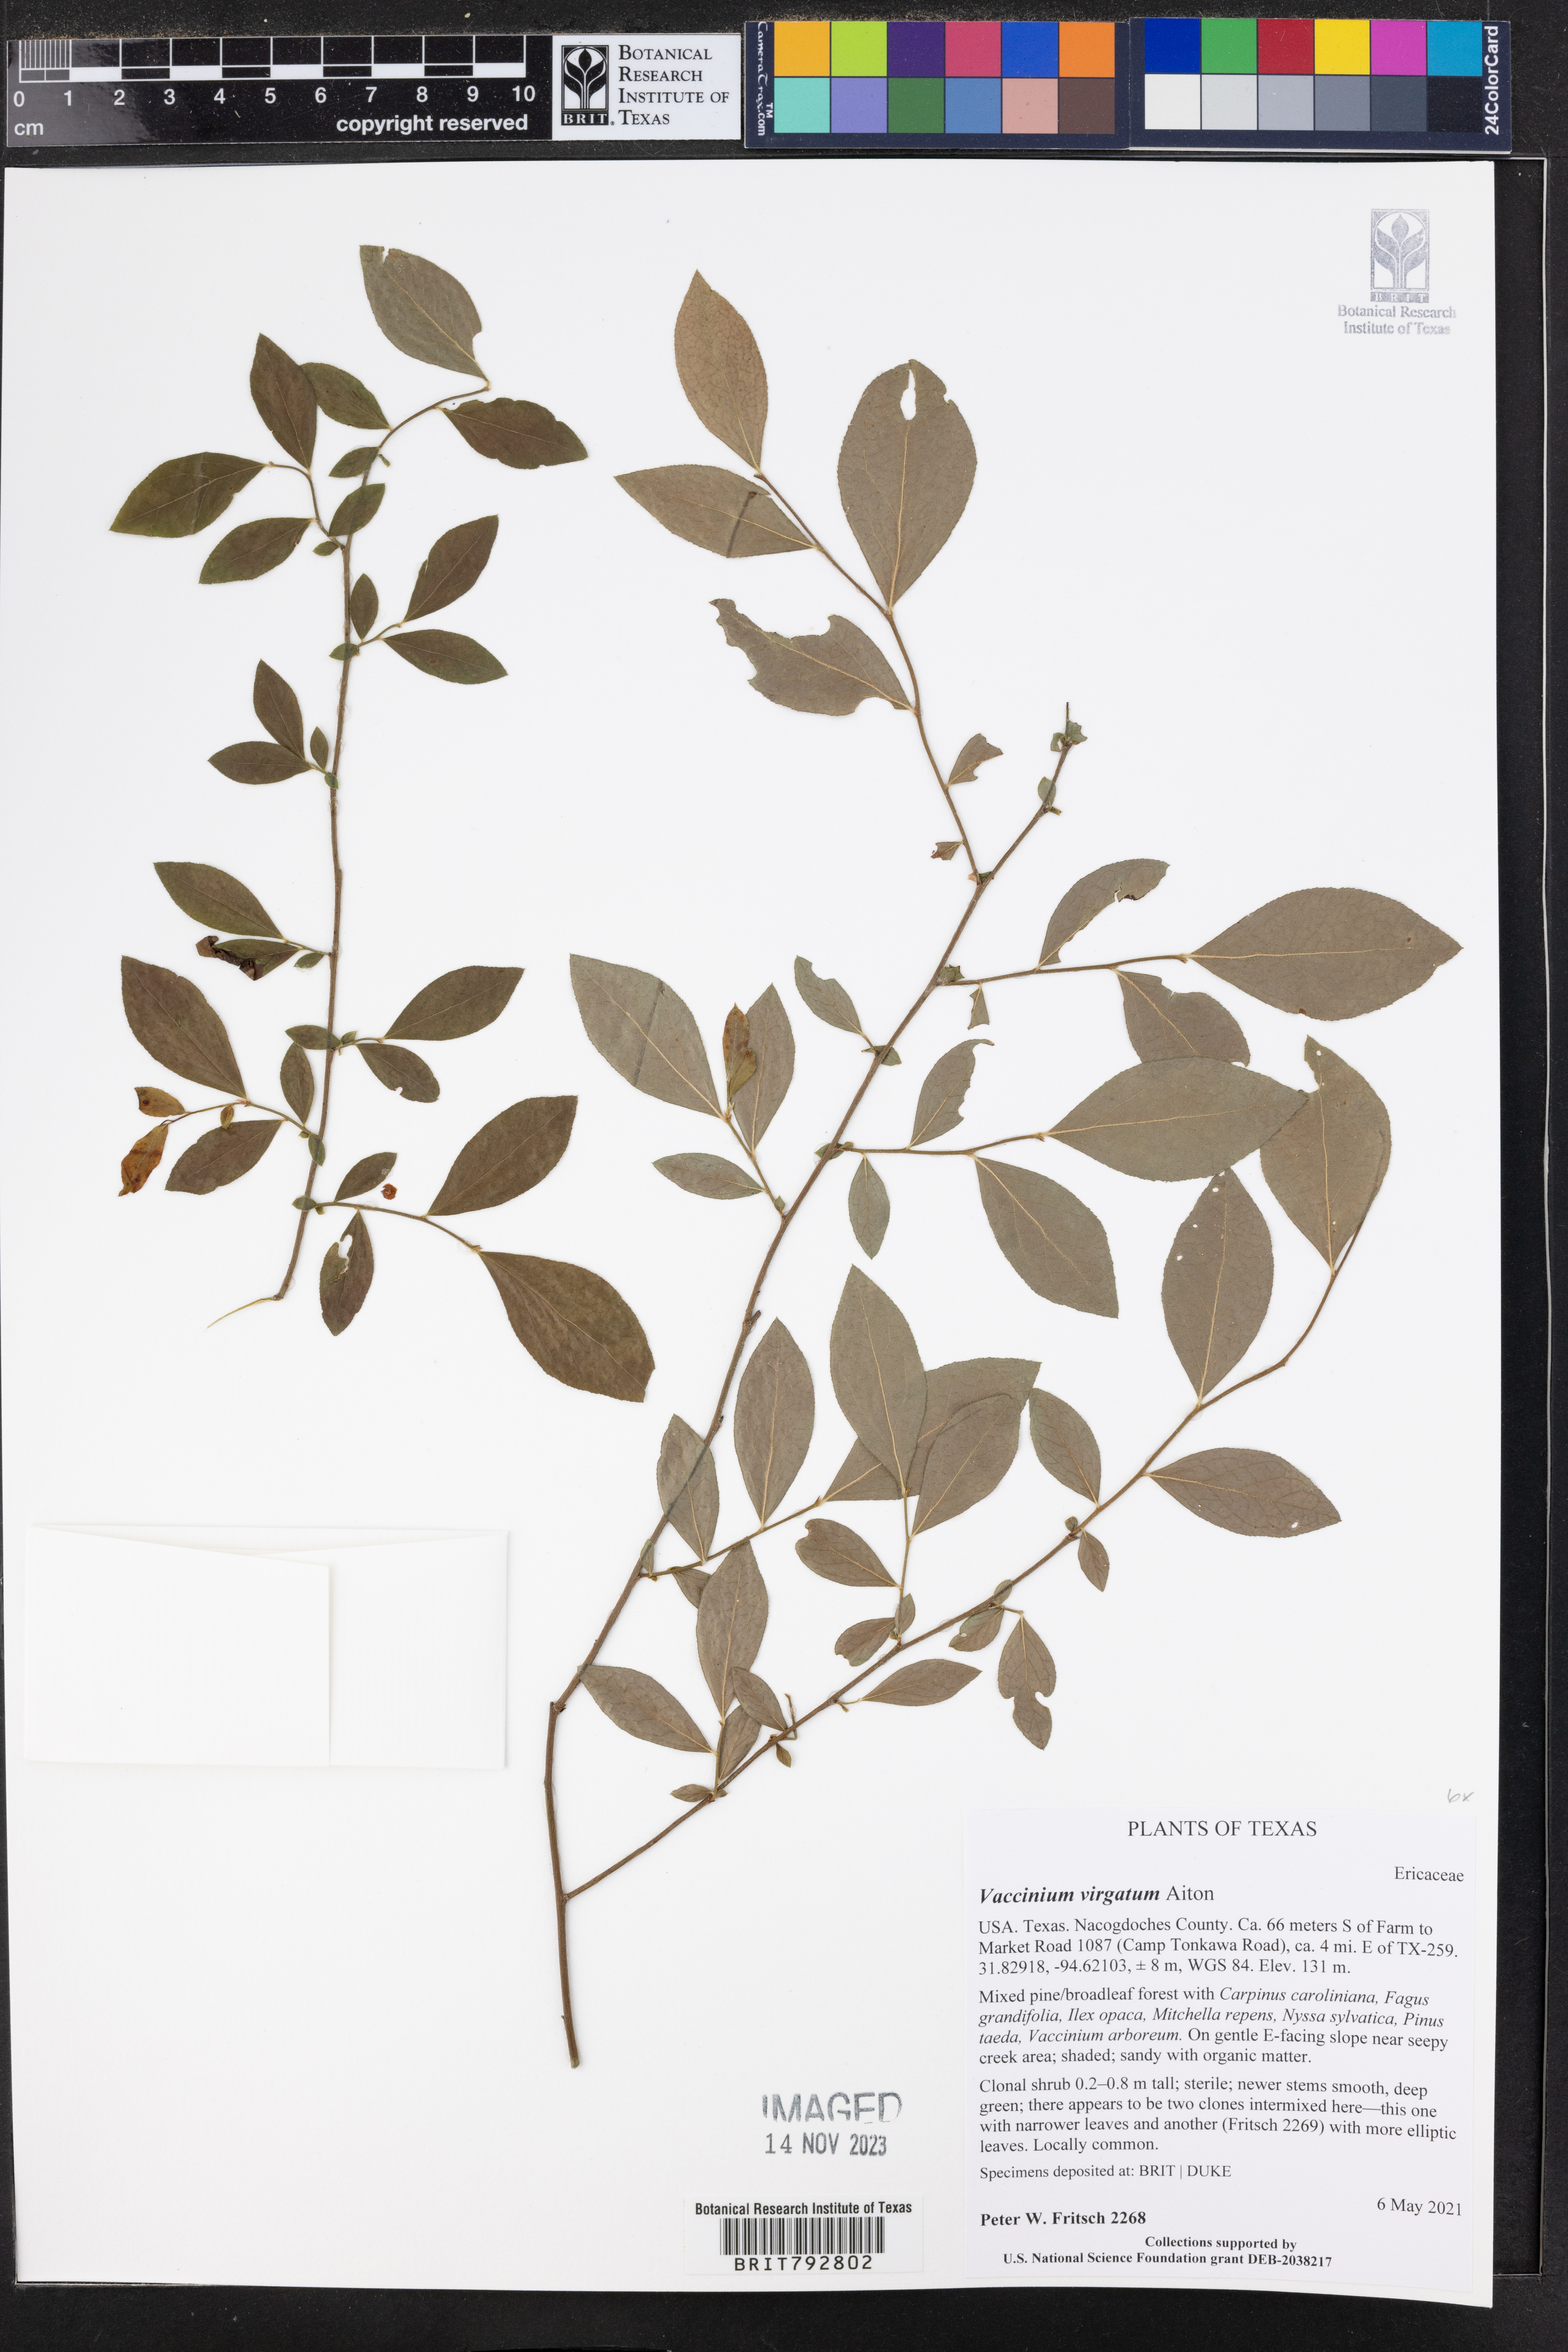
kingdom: Plantae
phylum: Tracheophyta
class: Magnoliopsida
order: Ericales
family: Ericaceae
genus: Vaccinium
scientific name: Vaccinium corymbosum
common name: Blueberry
